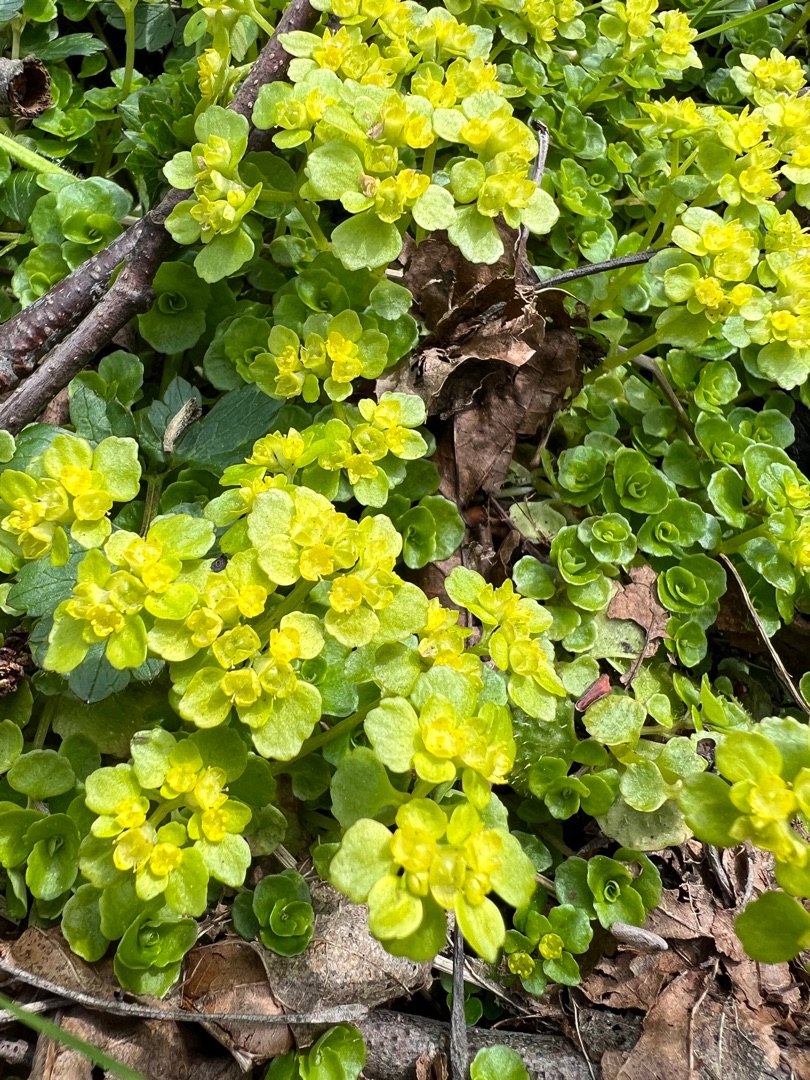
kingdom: Plantae
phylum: Tracheophyta
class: Magnoliopsida
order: Saxifragales
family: Saxifragaceae
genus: Chrysosplenium
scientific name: Chrysosplenium oppositifolium
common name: Småbladet milturt
